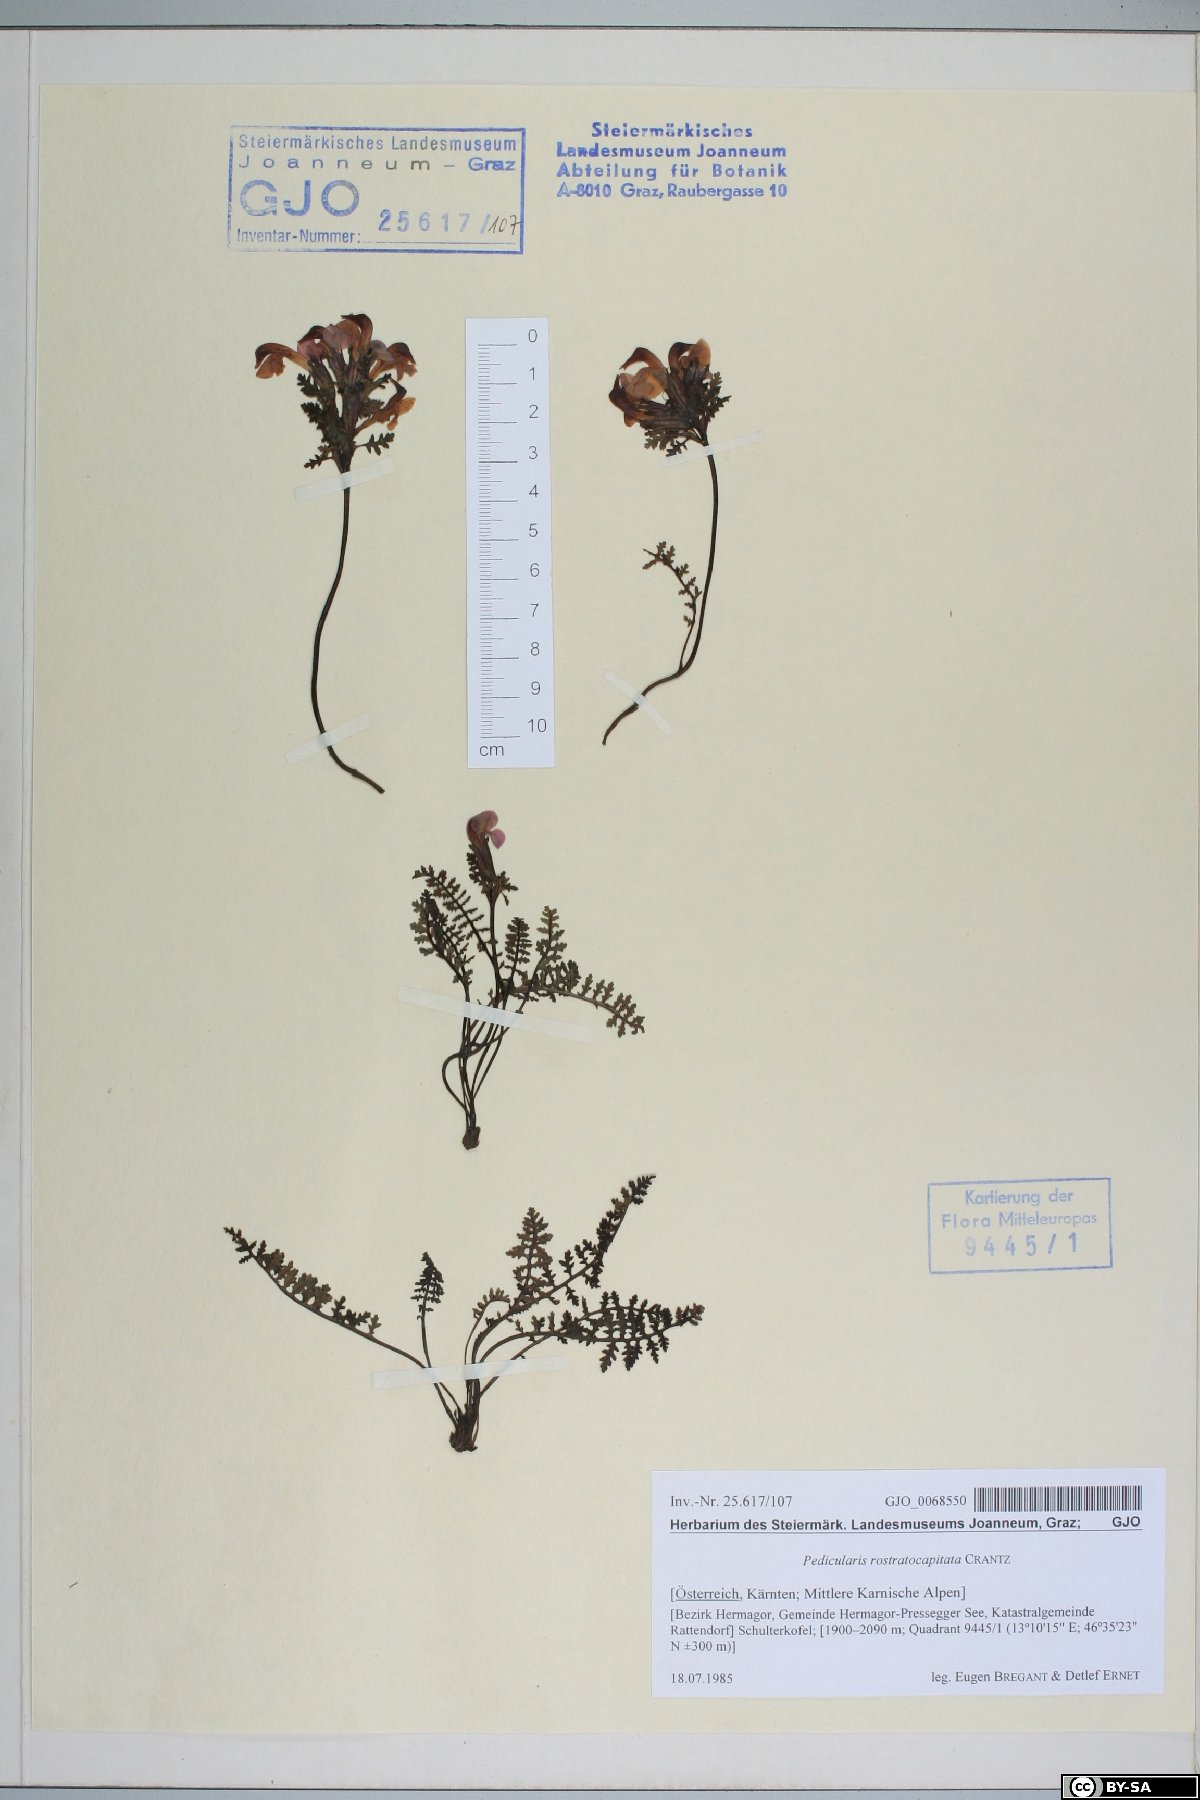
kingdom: Plantae
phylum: Tracheophyta
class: Magnoliopsida
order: Lamiales
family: Orobanchaceae
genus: Pedicularis
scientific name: Pedicularis rostratocapitata
